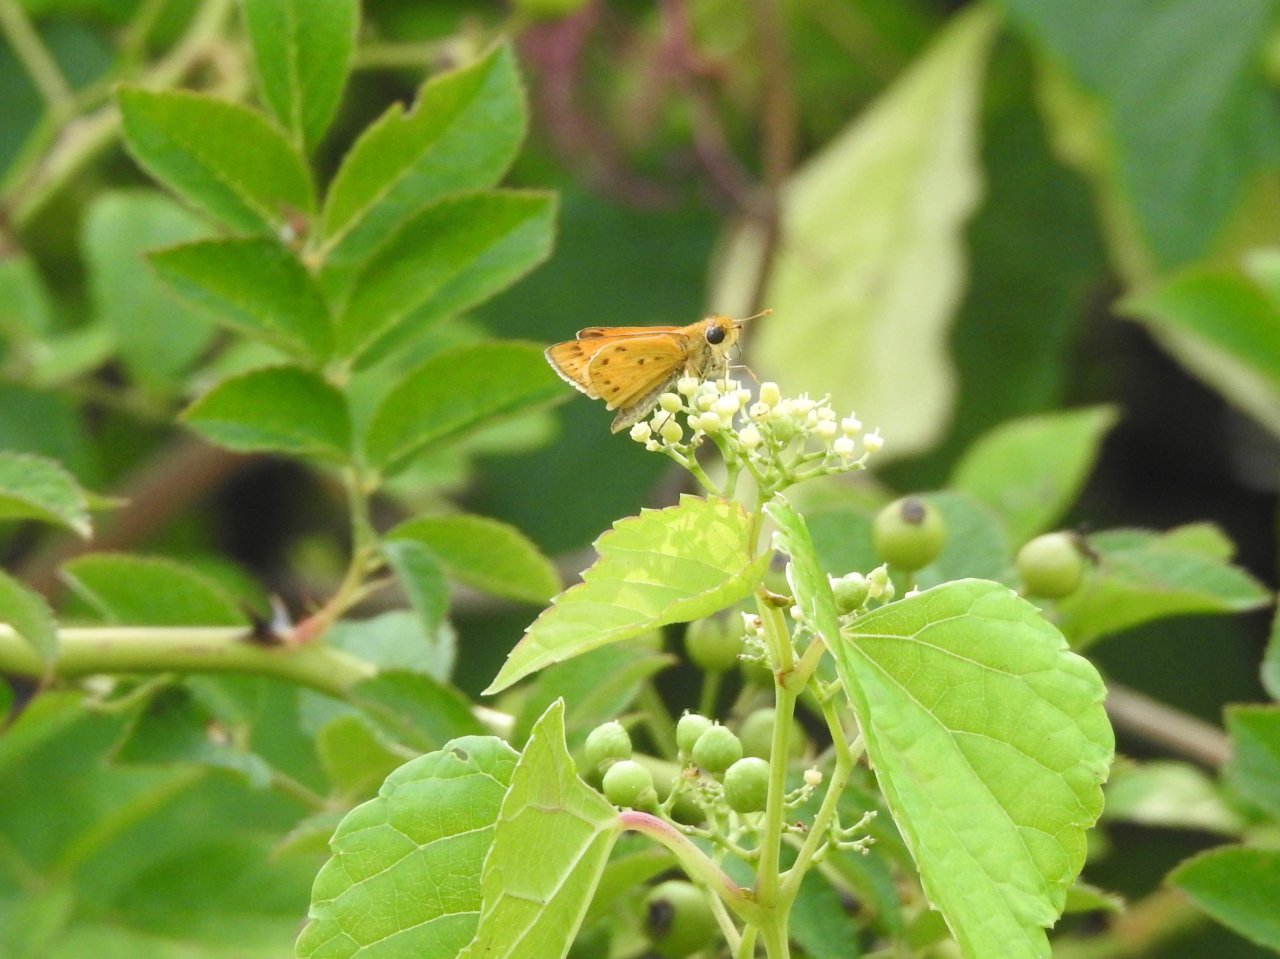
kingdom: Animalia
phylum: Arthropoda
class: Insecta
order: Lepidoptera
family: Hesperiidae
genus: Hylephila
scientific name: Hylephila phyleus
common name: Fiery Skipper
